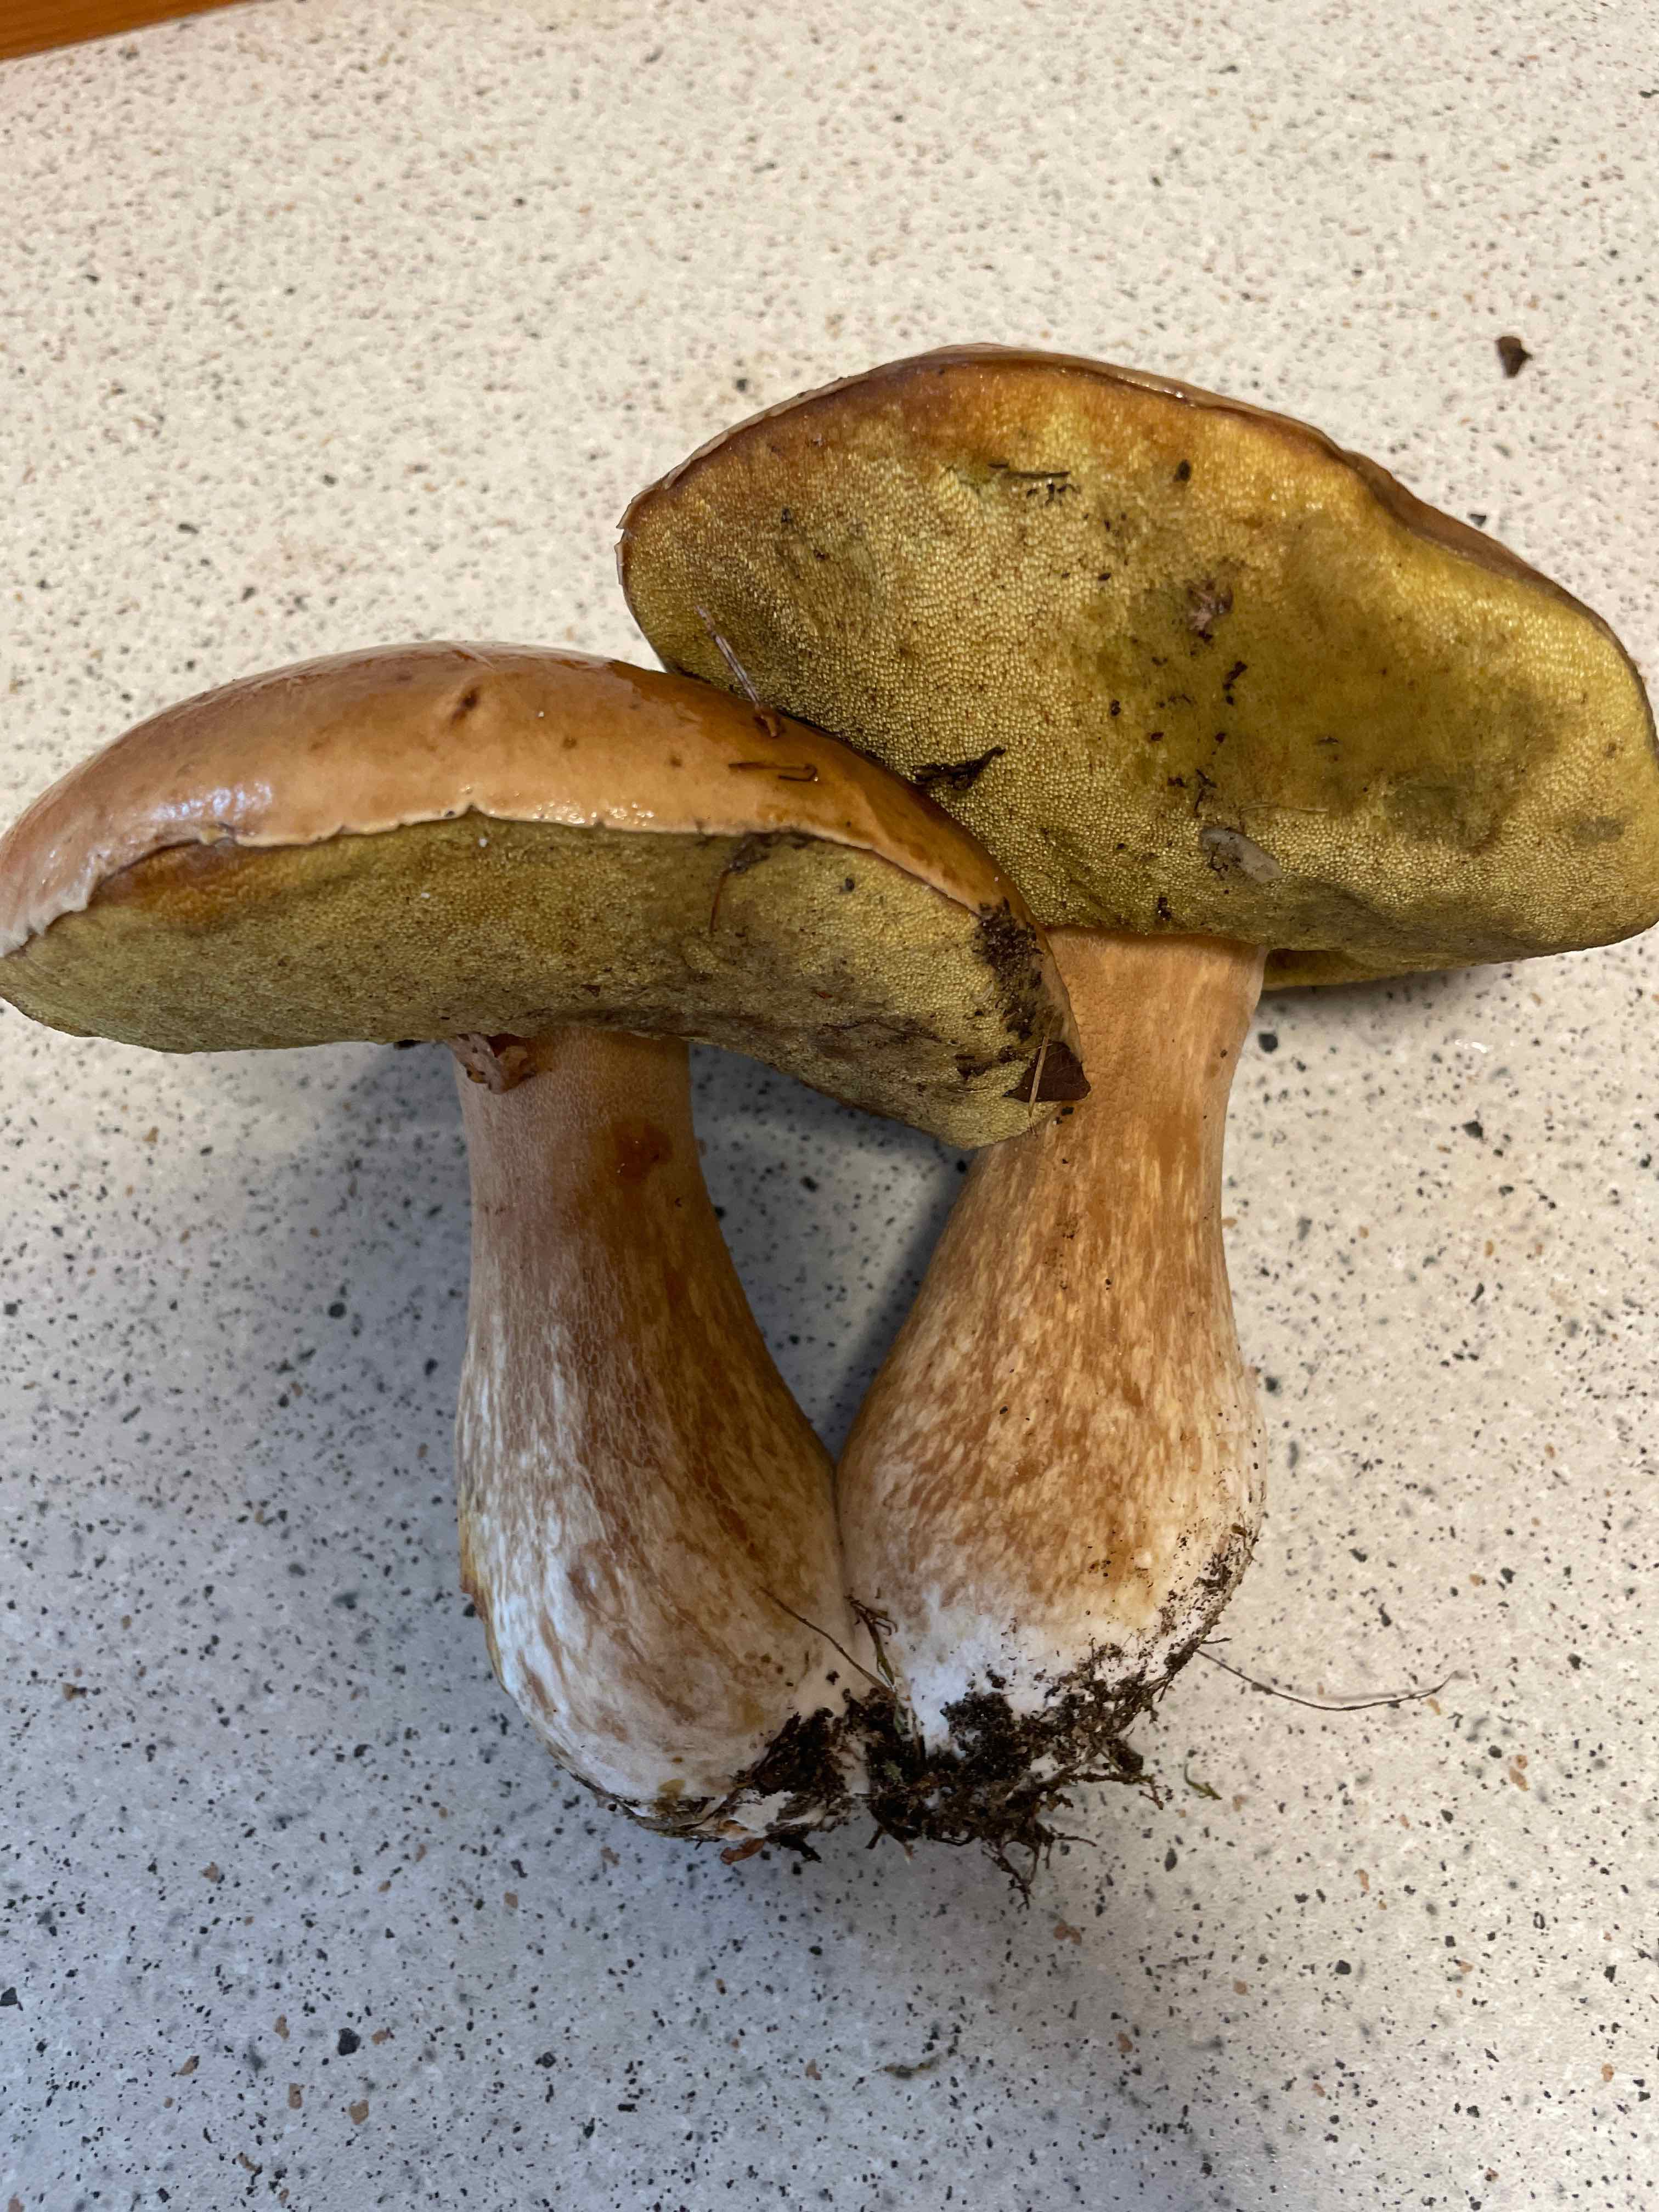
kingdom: Fungi
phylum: Basidiomycota
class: Agaricomycetes
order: Boletales
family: Boletaceae
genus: Boletus
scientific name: Boletus edulis
